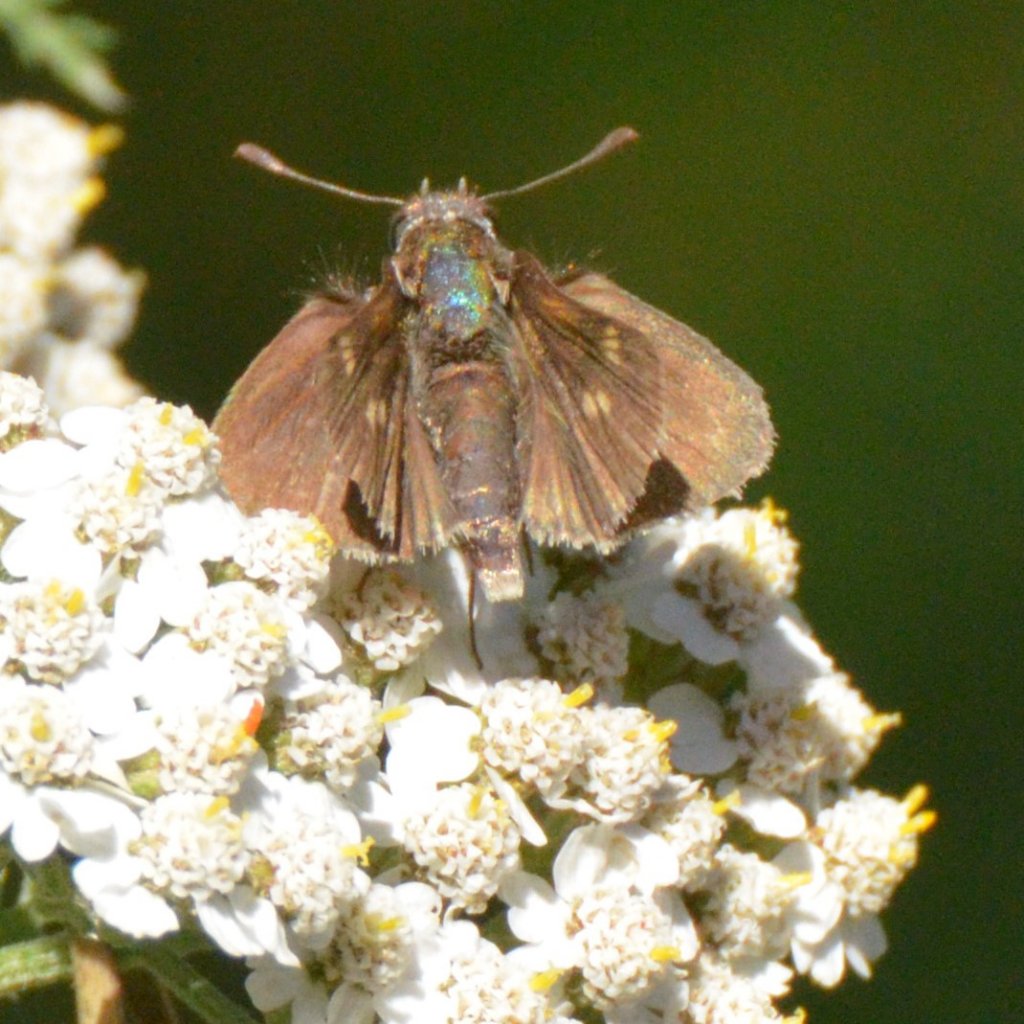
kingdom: Animalia
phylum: Arthropoda
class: Insecta
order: Lepidoptera
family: Hesperiidae
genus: Euphyes
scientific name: Euphyes vestris
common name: Dun Skipper
